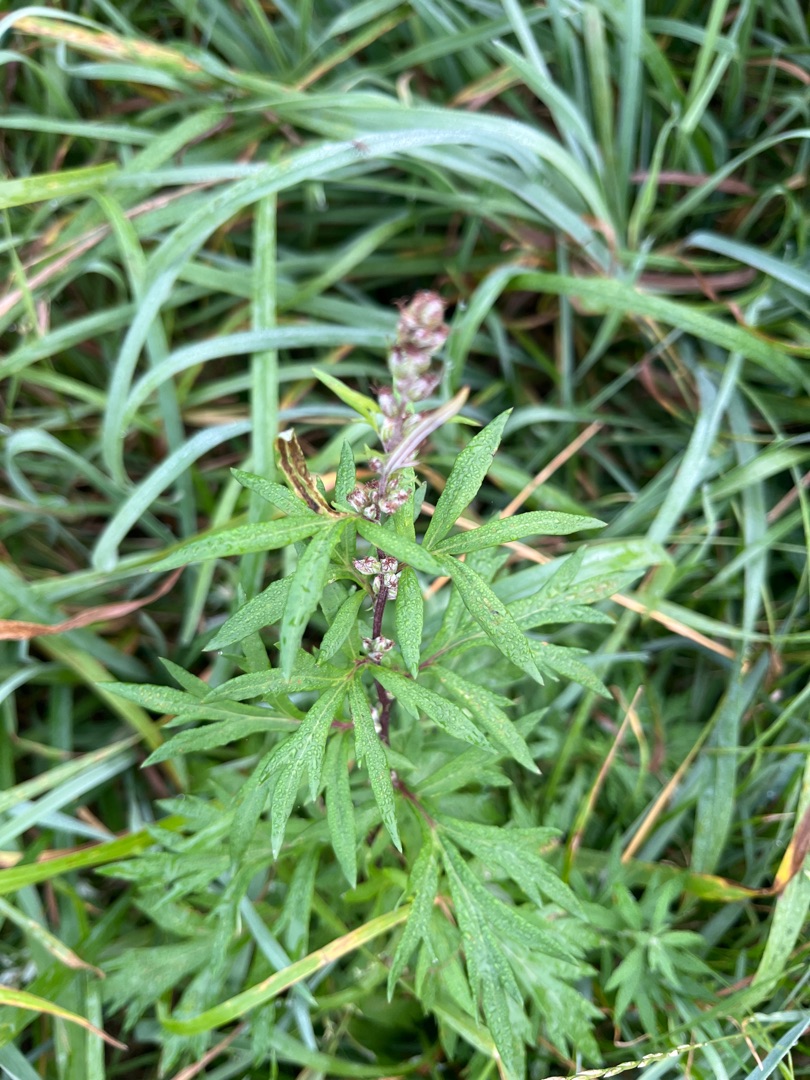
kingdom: Plantae
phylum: Tracheophyta
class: Magnoliopsida
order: Asterales
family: Asteraceae
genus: Artemisia
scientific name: Artemisia vulgaris
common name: Grå-bynke
